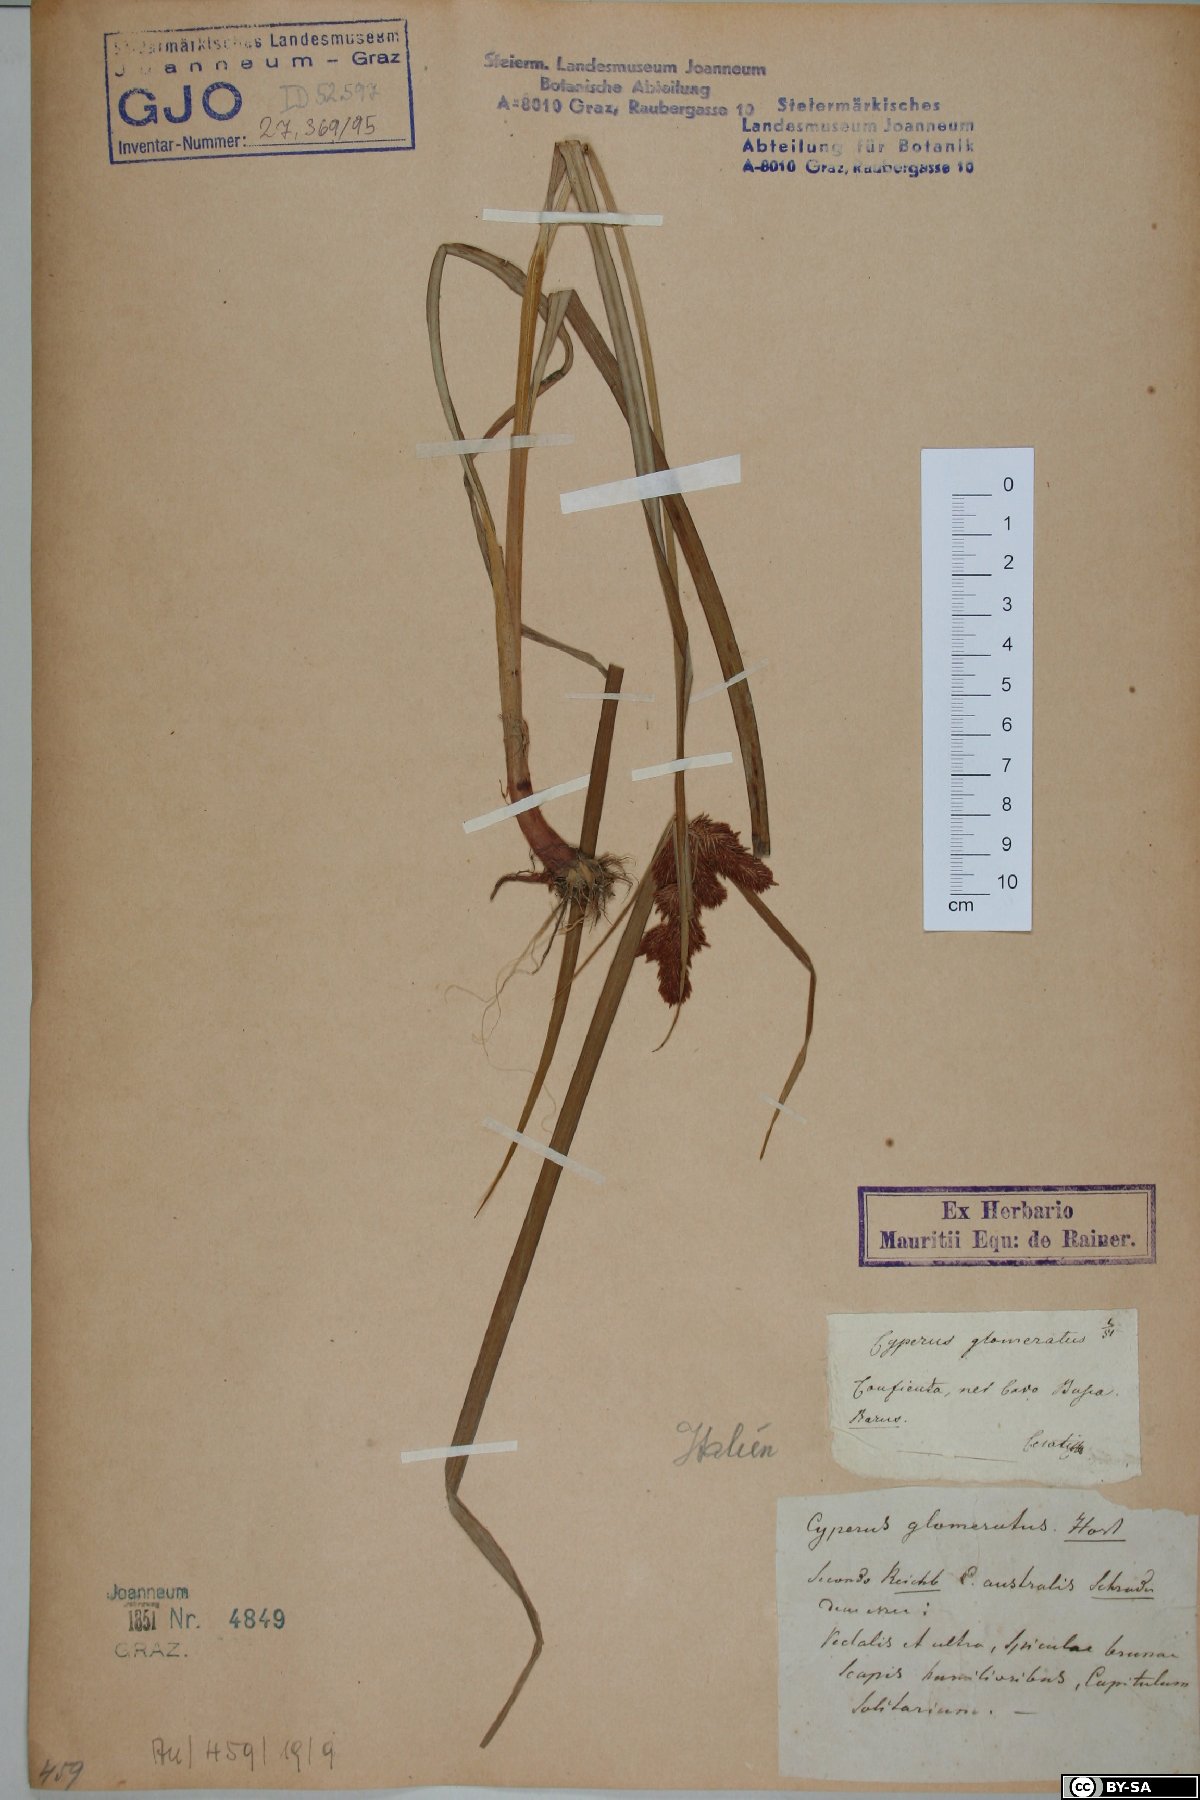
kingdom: Plantae
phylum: Tracheophyta
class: Liliopsida
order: Poales
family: Cyperaceae
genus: Cyperus
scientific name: Cyperus glomeratus
